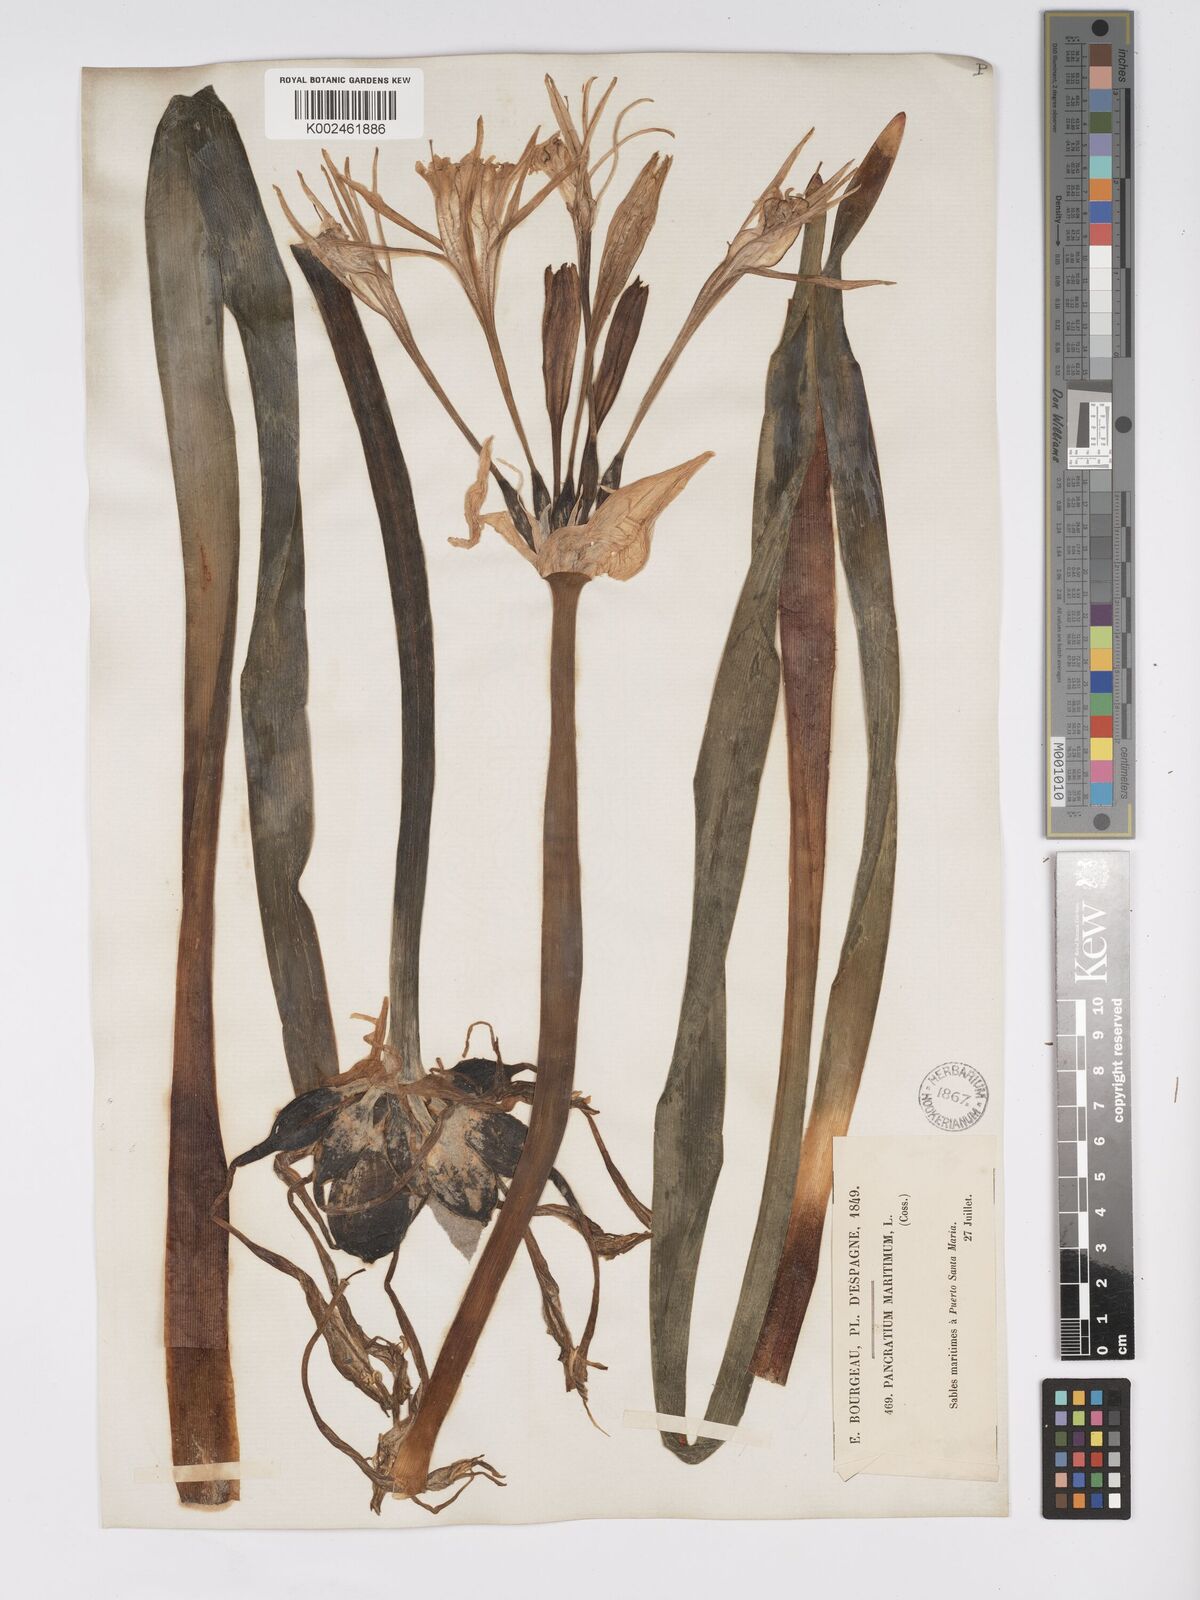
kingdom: Plantae
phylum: Tracheophyta
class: Liliopsida
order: Asparagales
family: Amaryllidaceae
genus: Pancratium
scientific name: Pancratium maritimum
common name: Sea-daffodil
